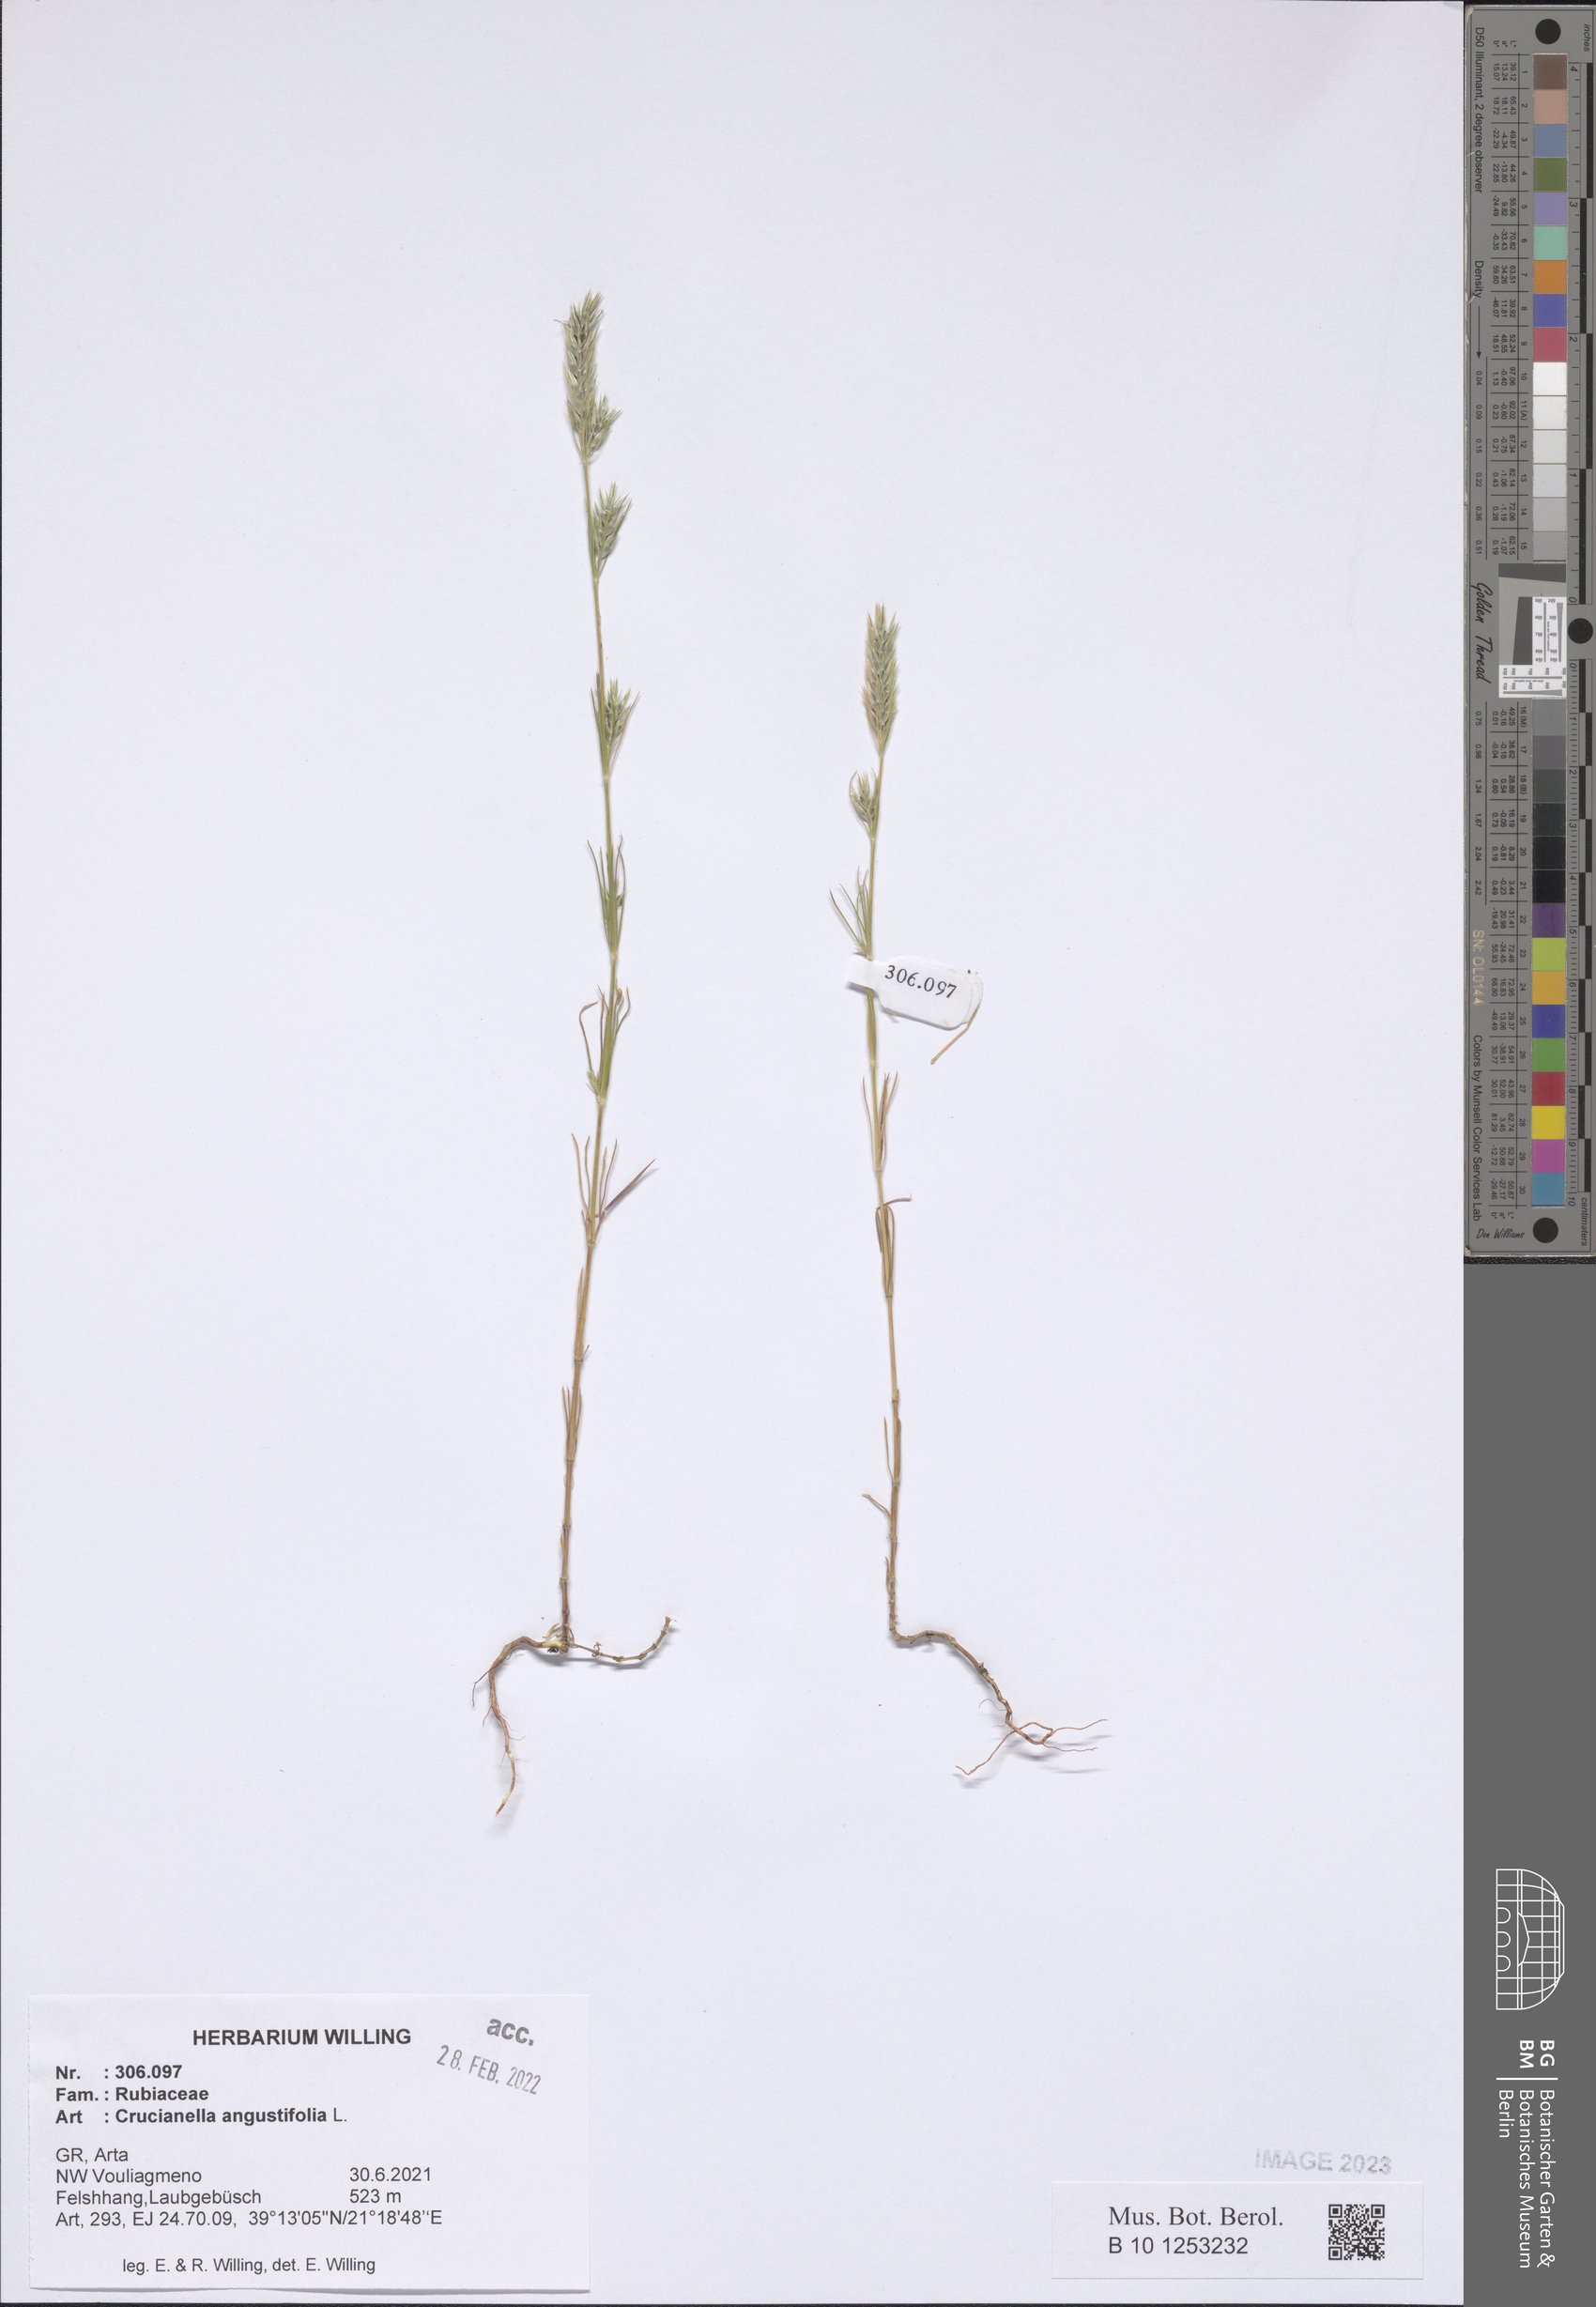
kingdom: Plantae
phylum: Tracheophyta
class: Magnoliopsida
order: Gentianales
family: Rubiaceae
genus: Crucianella
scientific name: Crucianella angustifolia
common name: Narrowleaf crucianella
